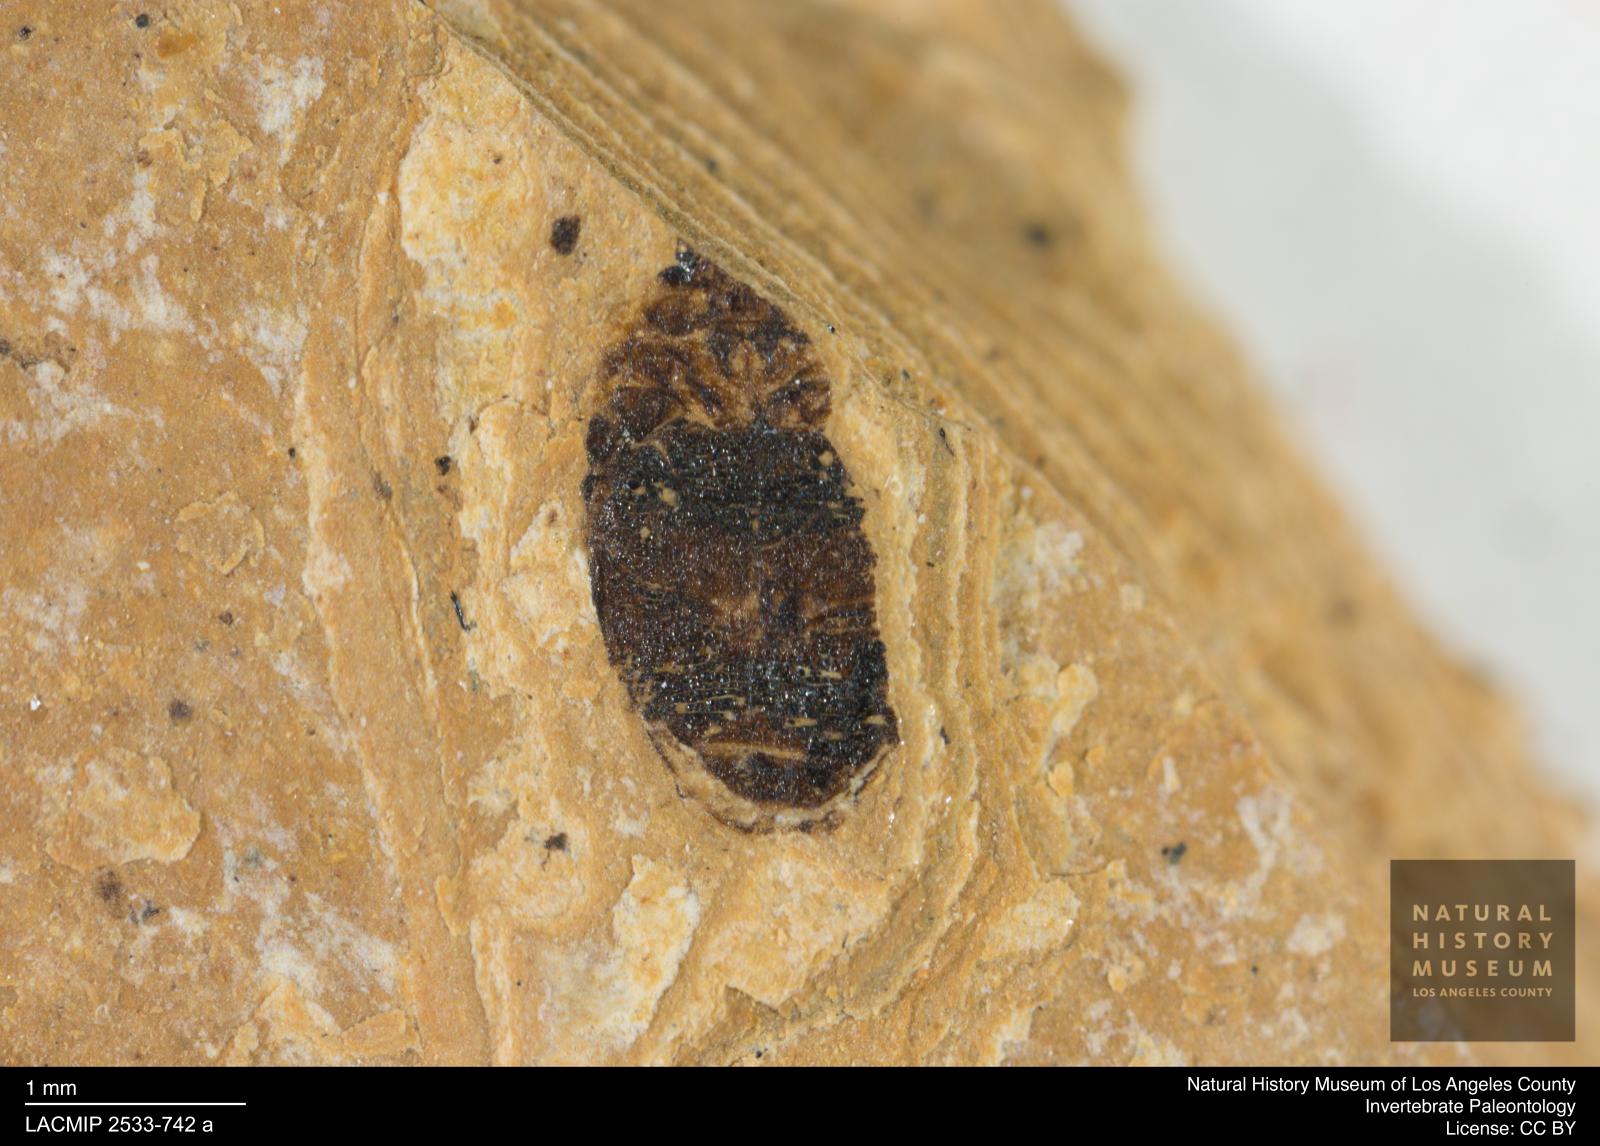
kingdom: Animalia
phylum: Arthropoda
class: Insecta
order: Coleoptera
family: Dytiscidae
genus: Oreodytes
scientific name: Oreodytes cryptolineatus
